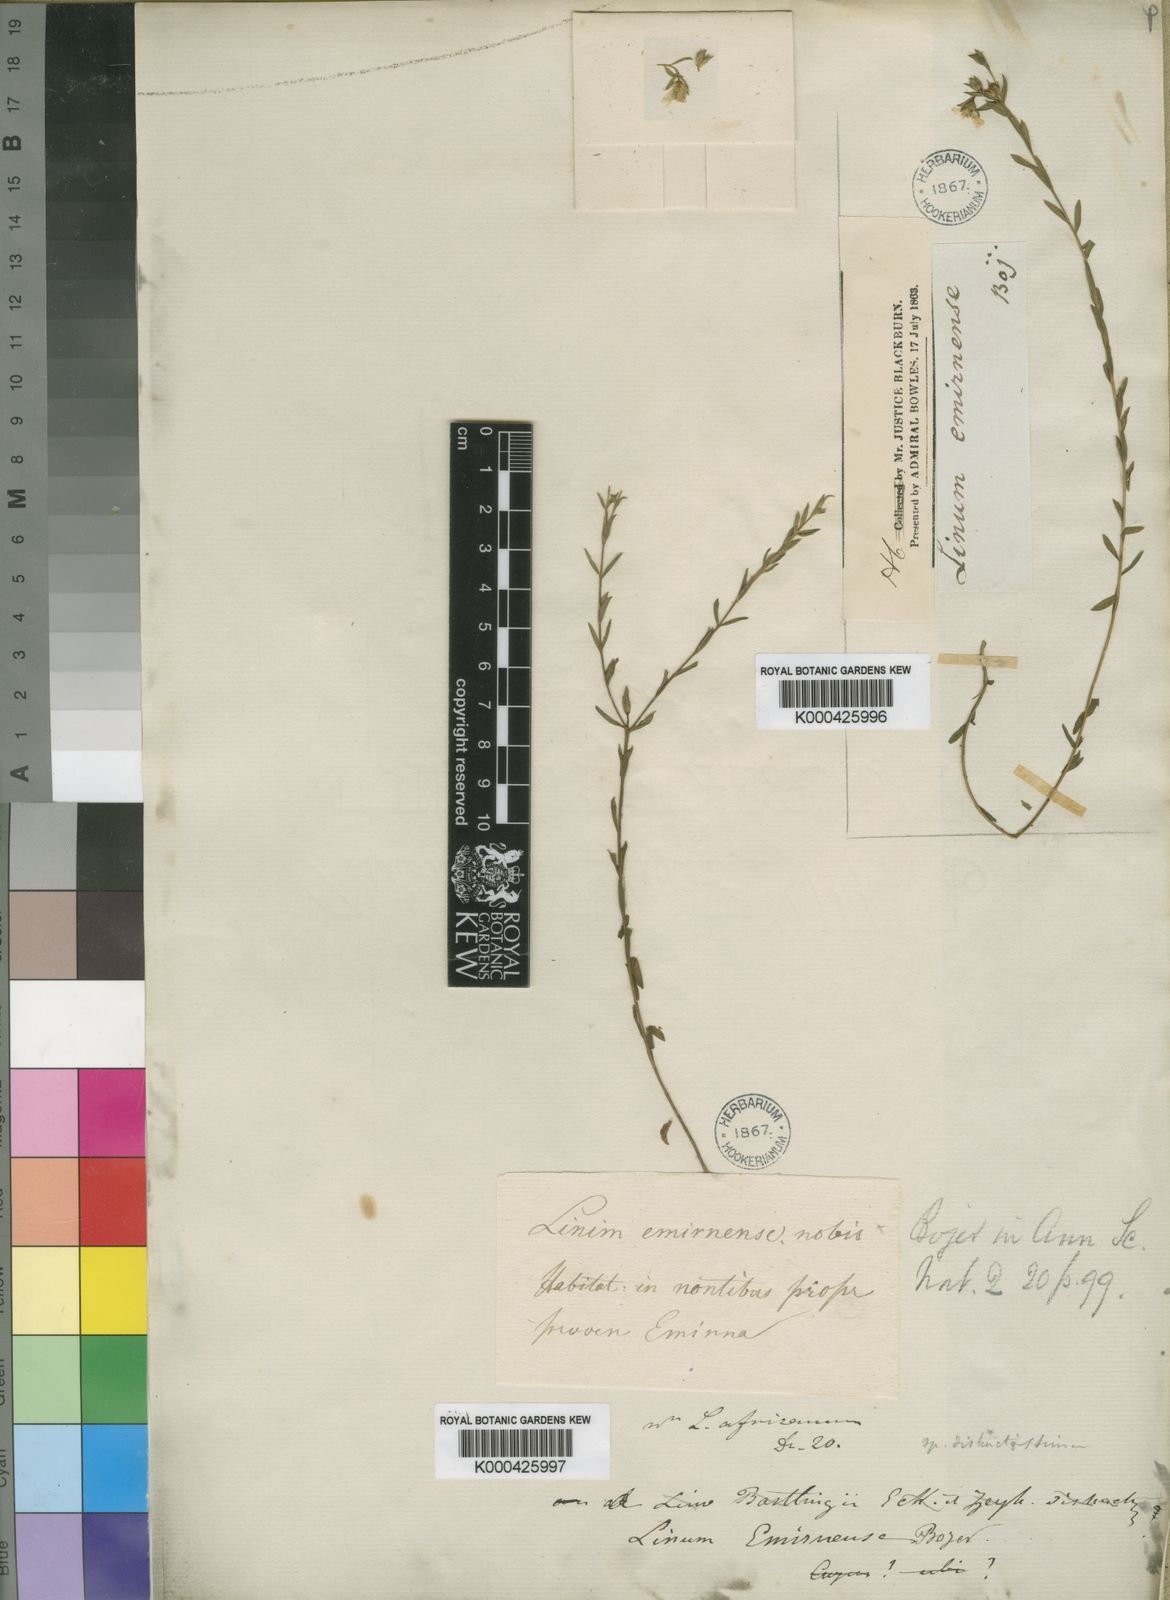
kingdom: Plantae
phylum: Tracheophyta
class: Magnoliopsida
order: Malpighiales
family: Linaceae
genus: Linum
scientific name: Linum emirnense
